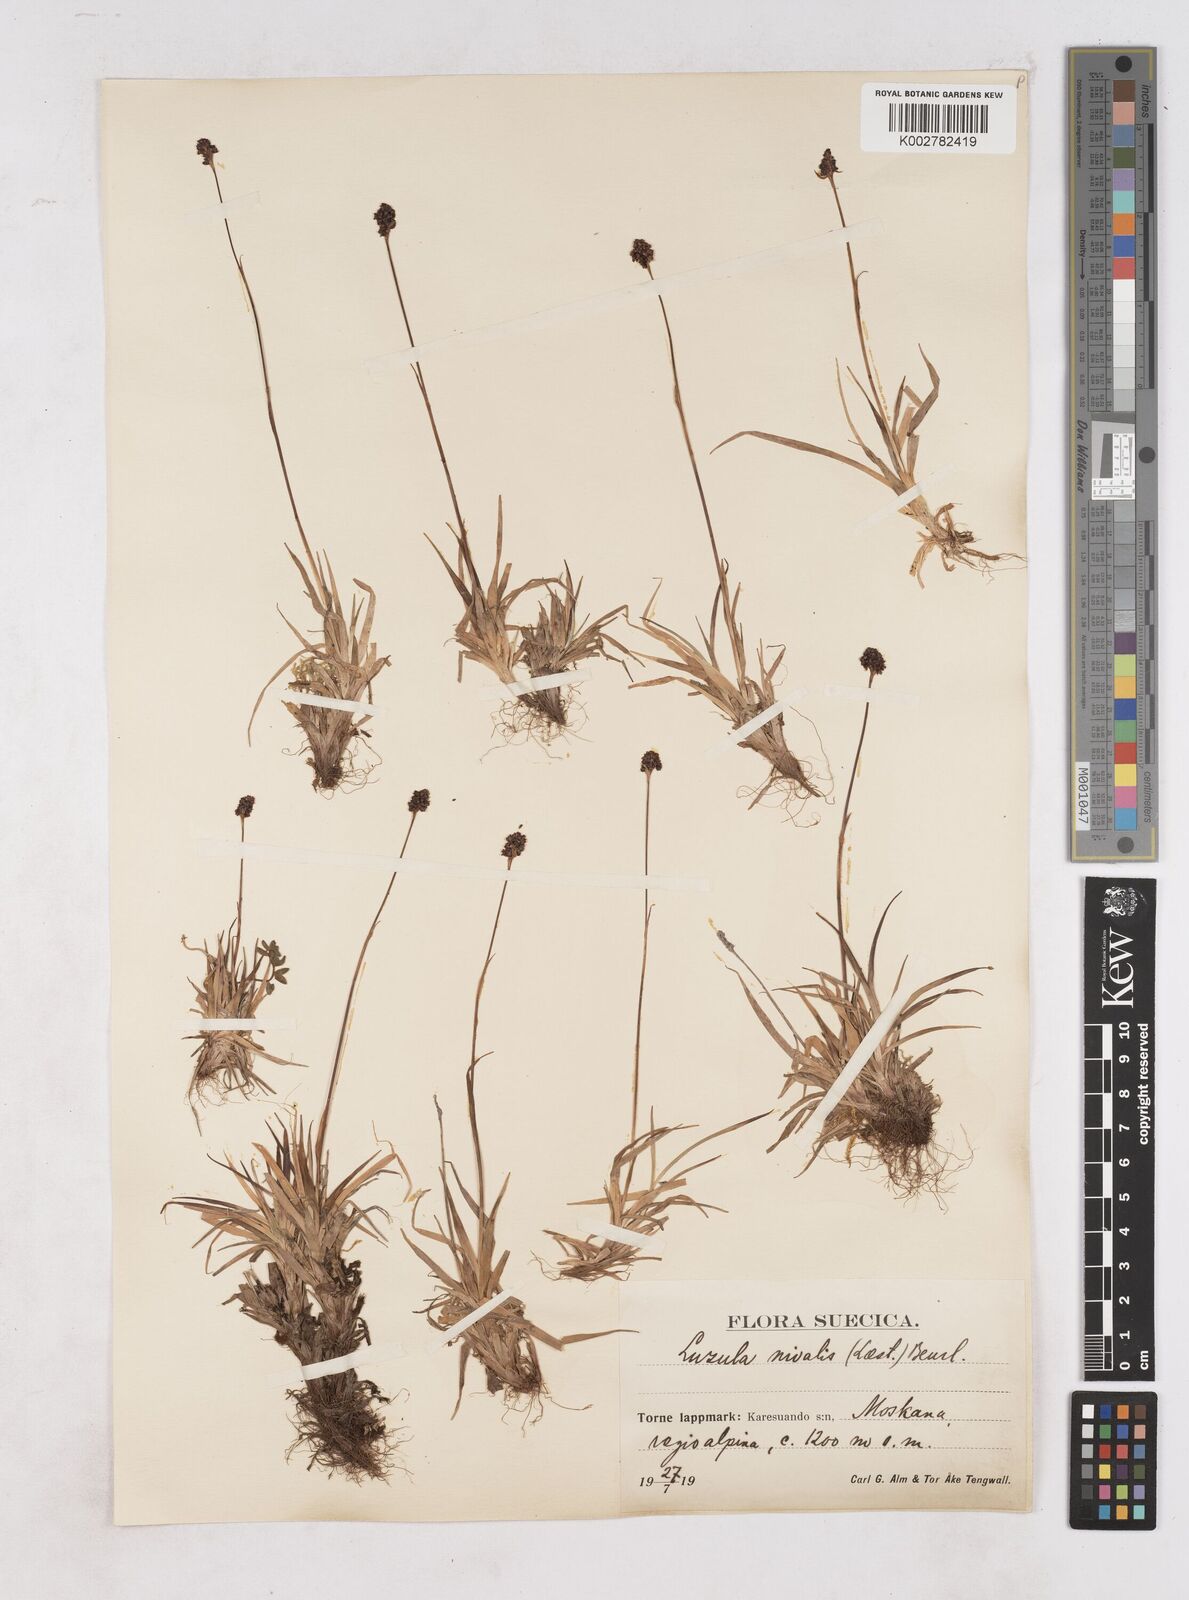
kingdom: Plantae
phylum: Tracheophyta
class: Liliopsida
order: Poales
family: Juncaceae
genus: Luzula
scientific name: Luzula nivalis
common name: Arctic woodrush
